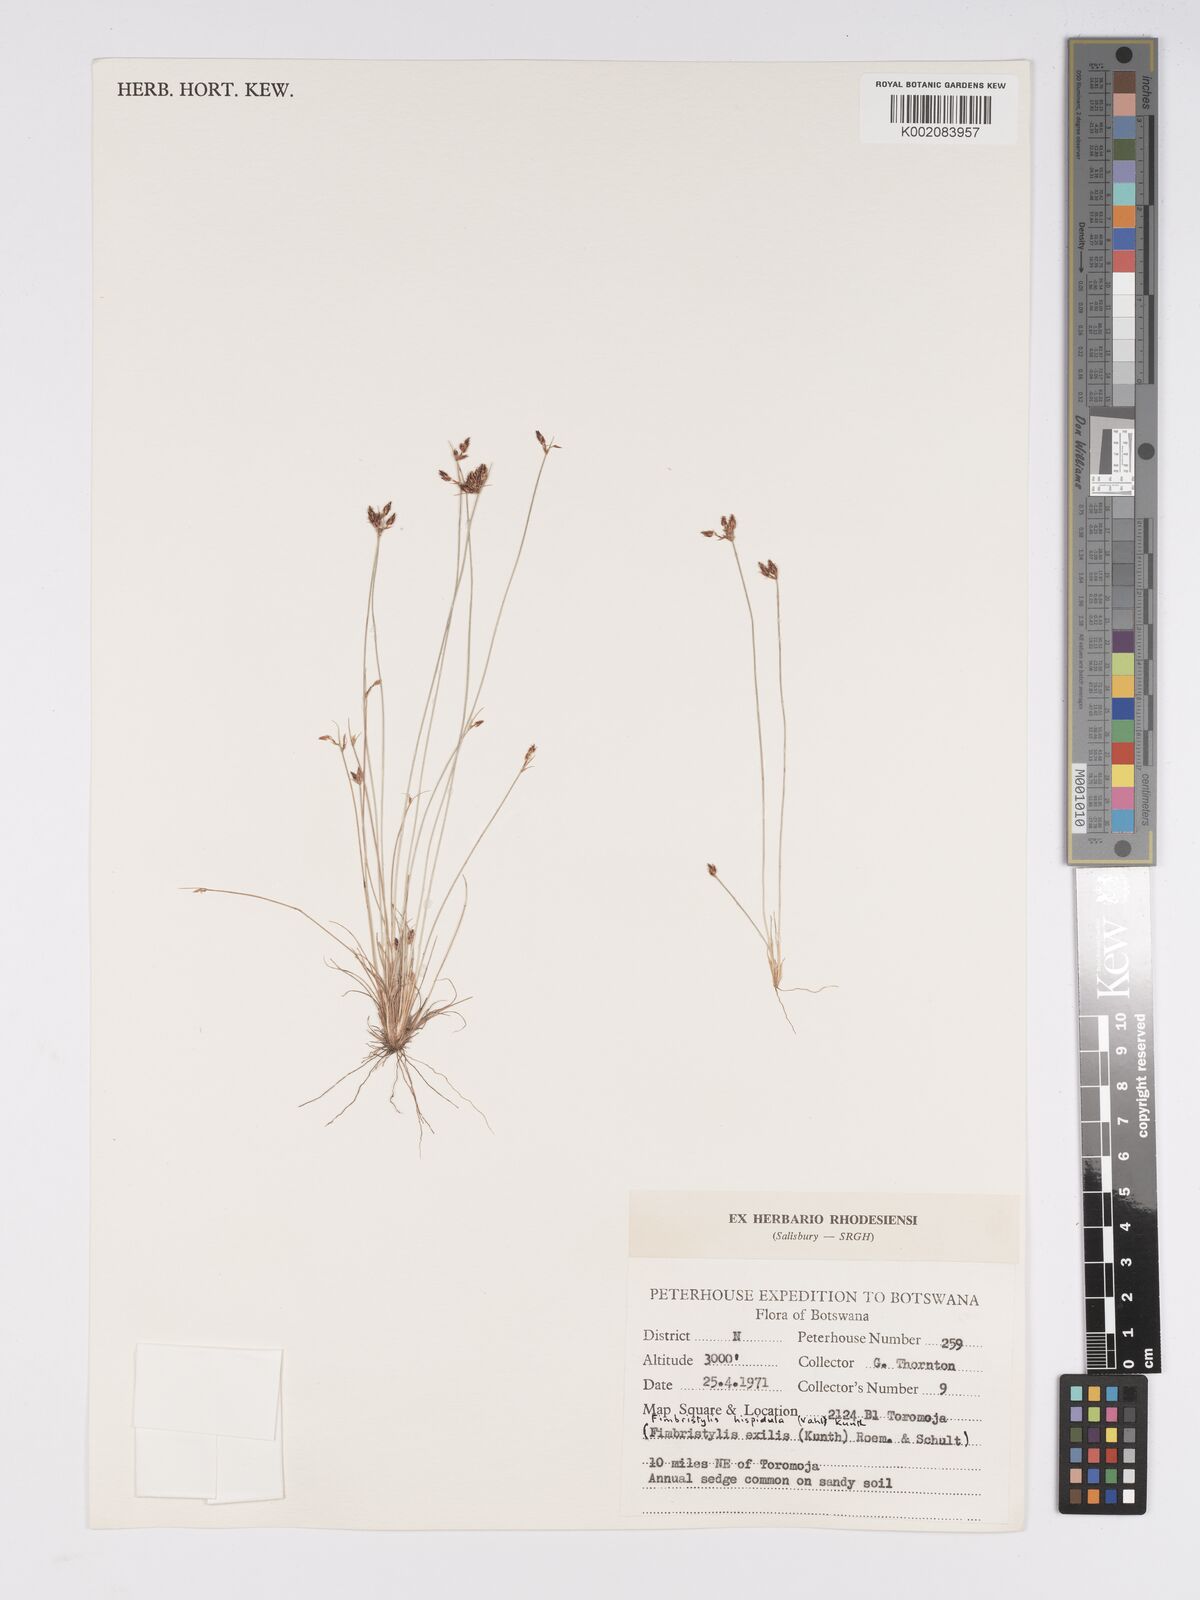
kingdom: Plantae
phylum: Tracheophyta
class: Liliopsida
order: Poales
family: Cyperaceae
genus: Bulbostylis
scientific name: Bulbostylis hispidula
